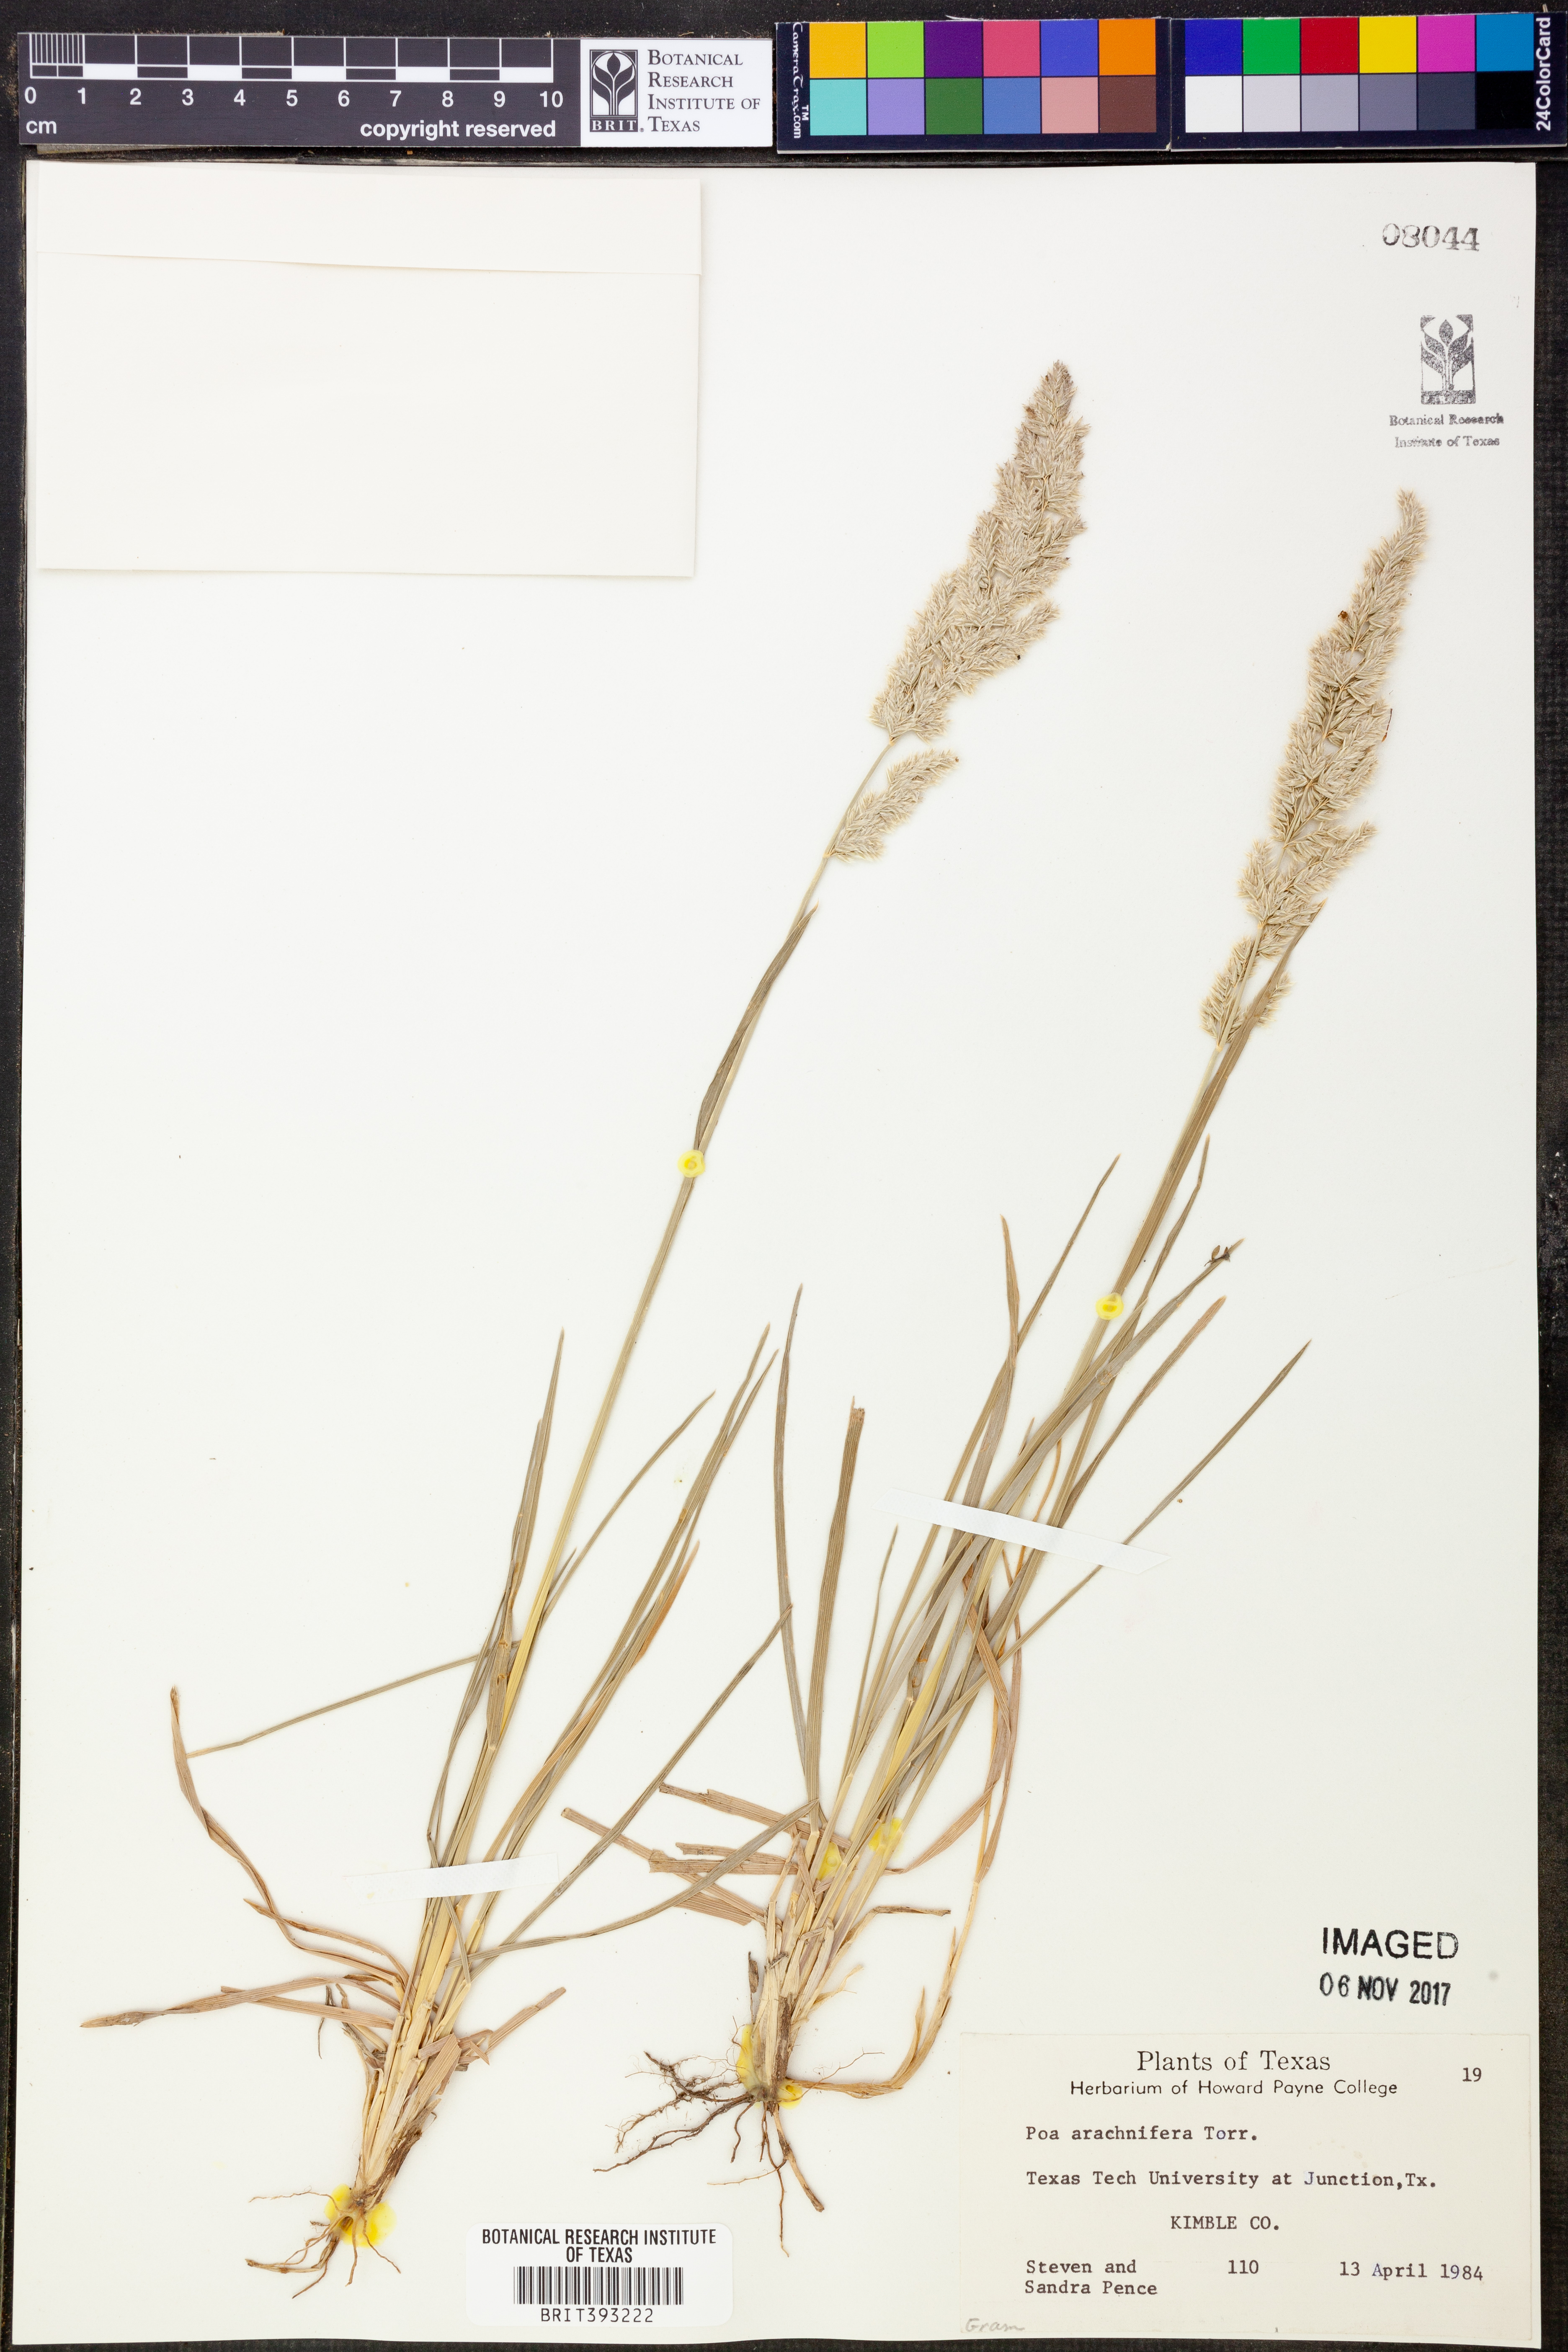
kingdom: Plantae
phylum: Tracheophyta
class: Liliopsida
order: Poales
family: Poaceae
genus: Poa
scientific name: Poa arachnifera
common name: Texas bluegrass
